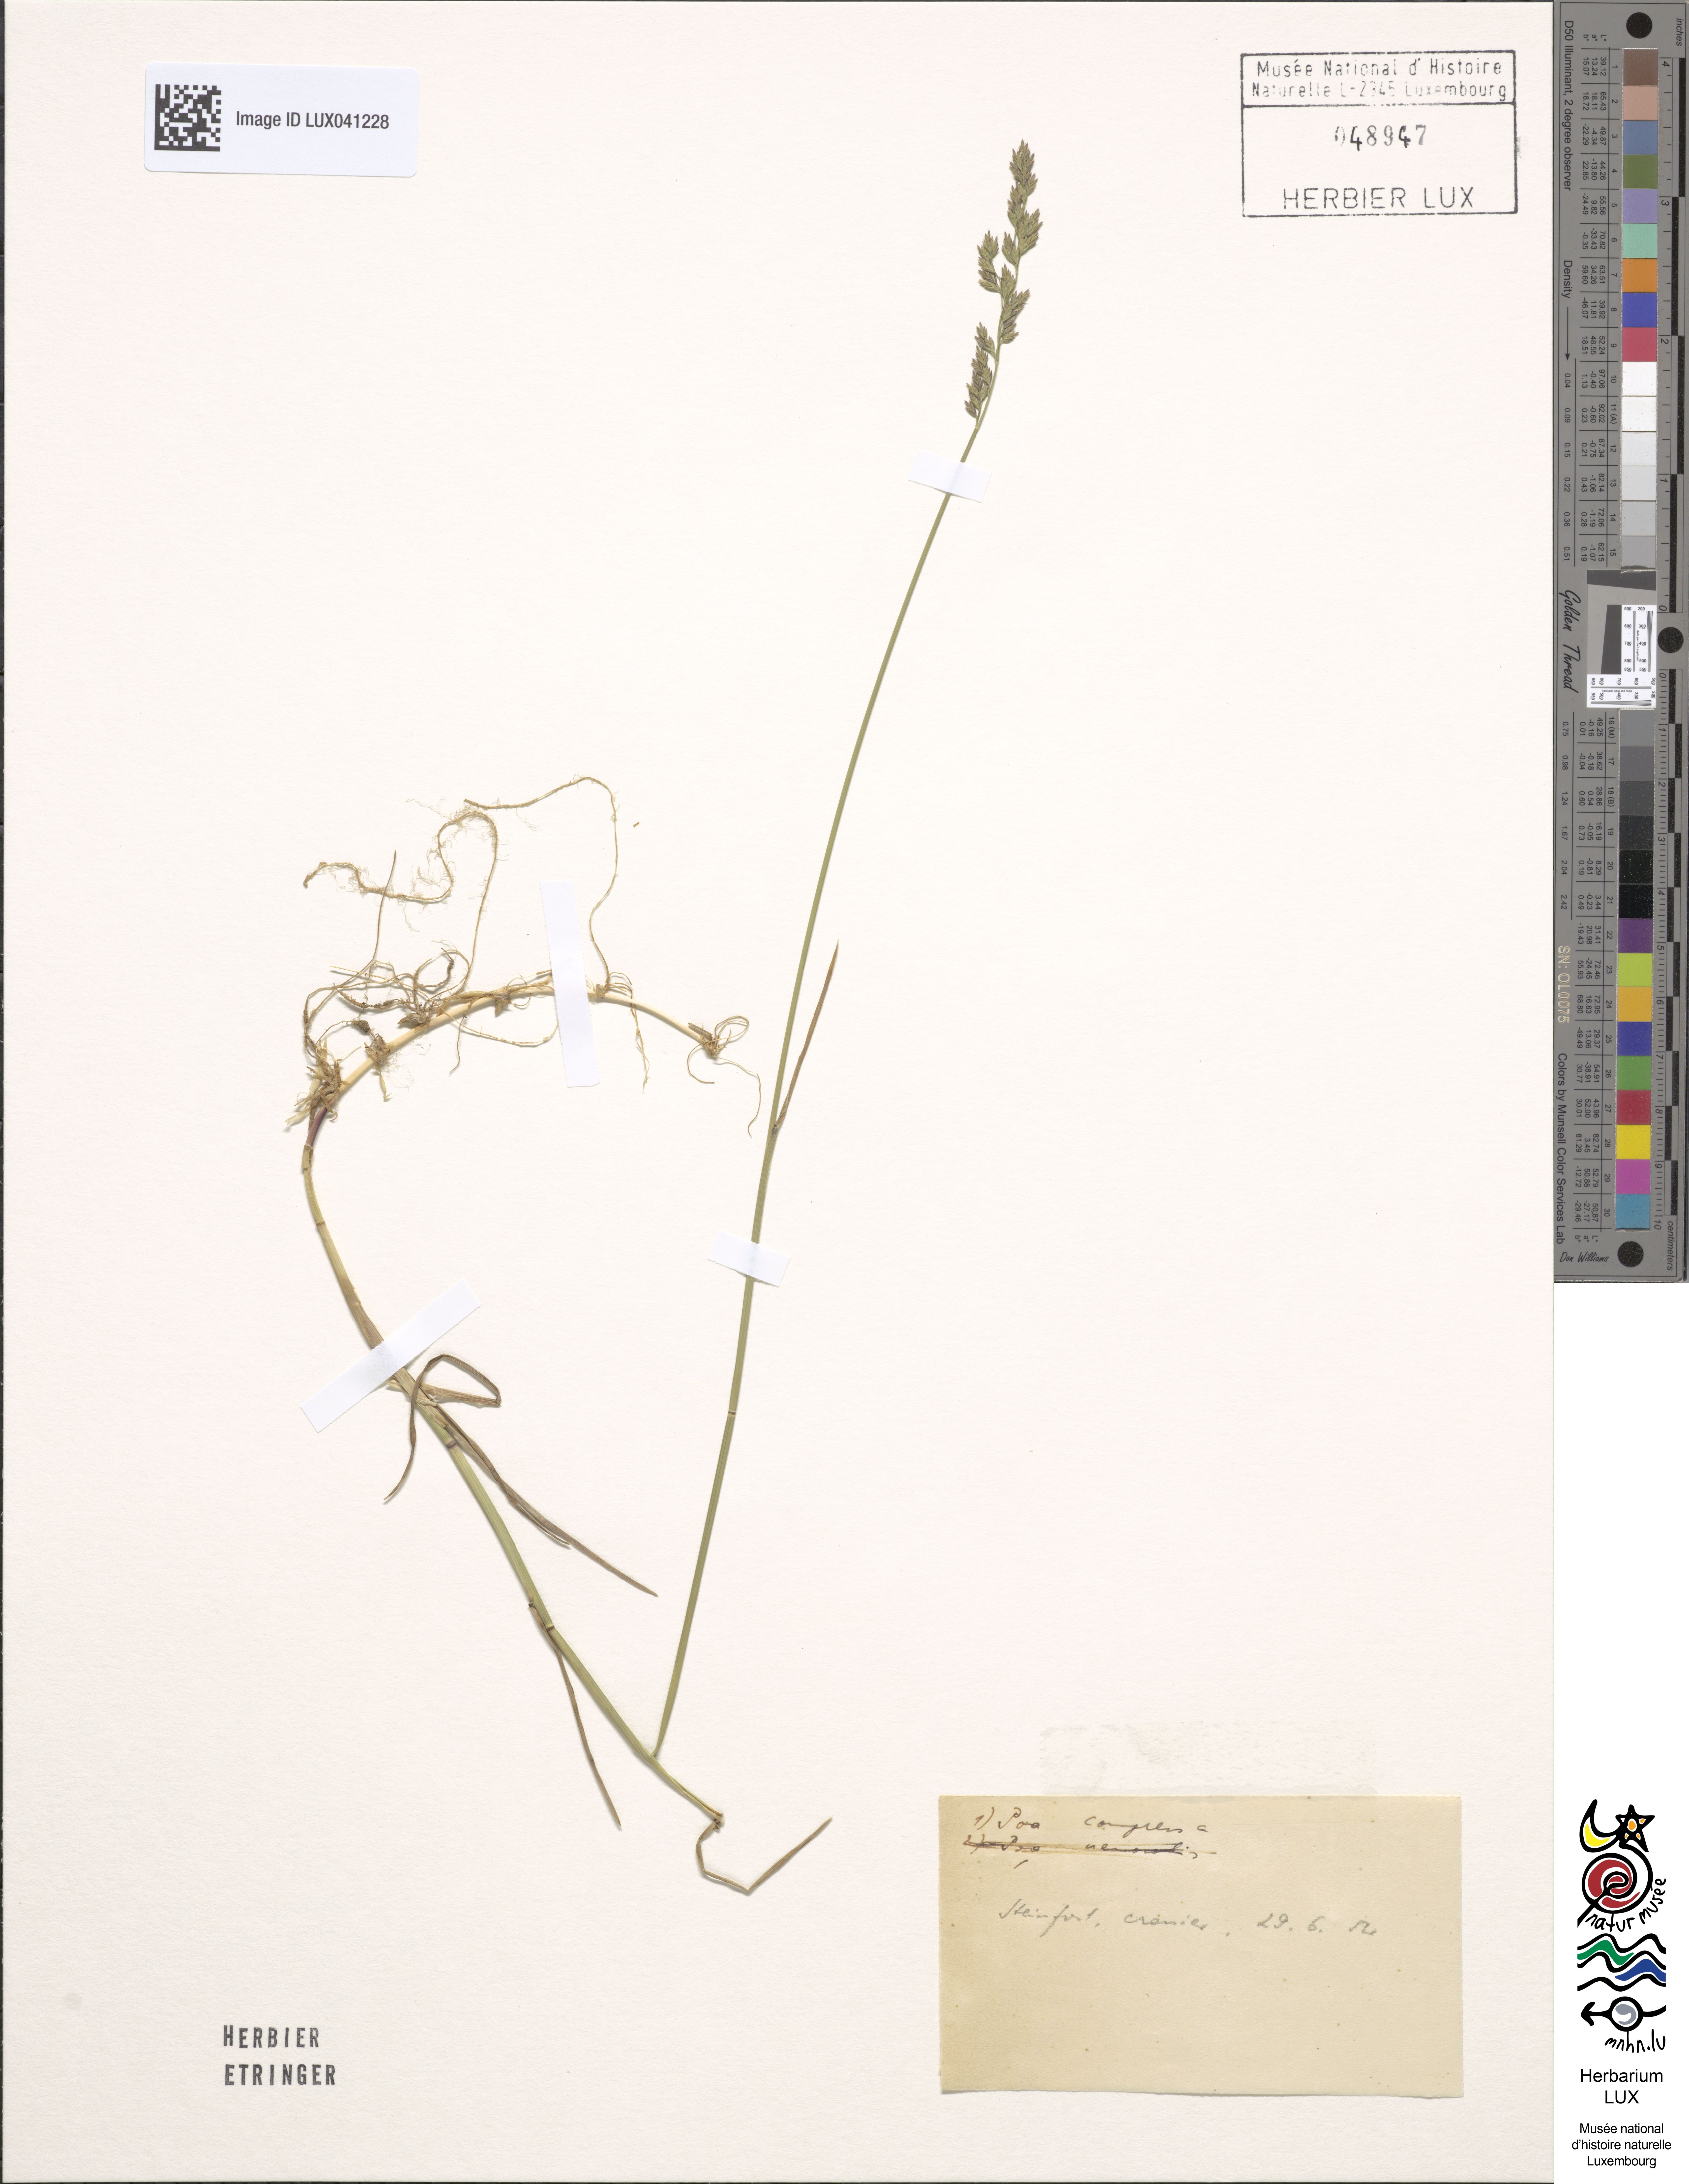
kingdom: Plantae
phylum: Tracheophyta
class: Liliopsida
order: Poales
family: Poaceae
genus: Poa
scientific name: Poa compressa
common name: Canada bluegrass
